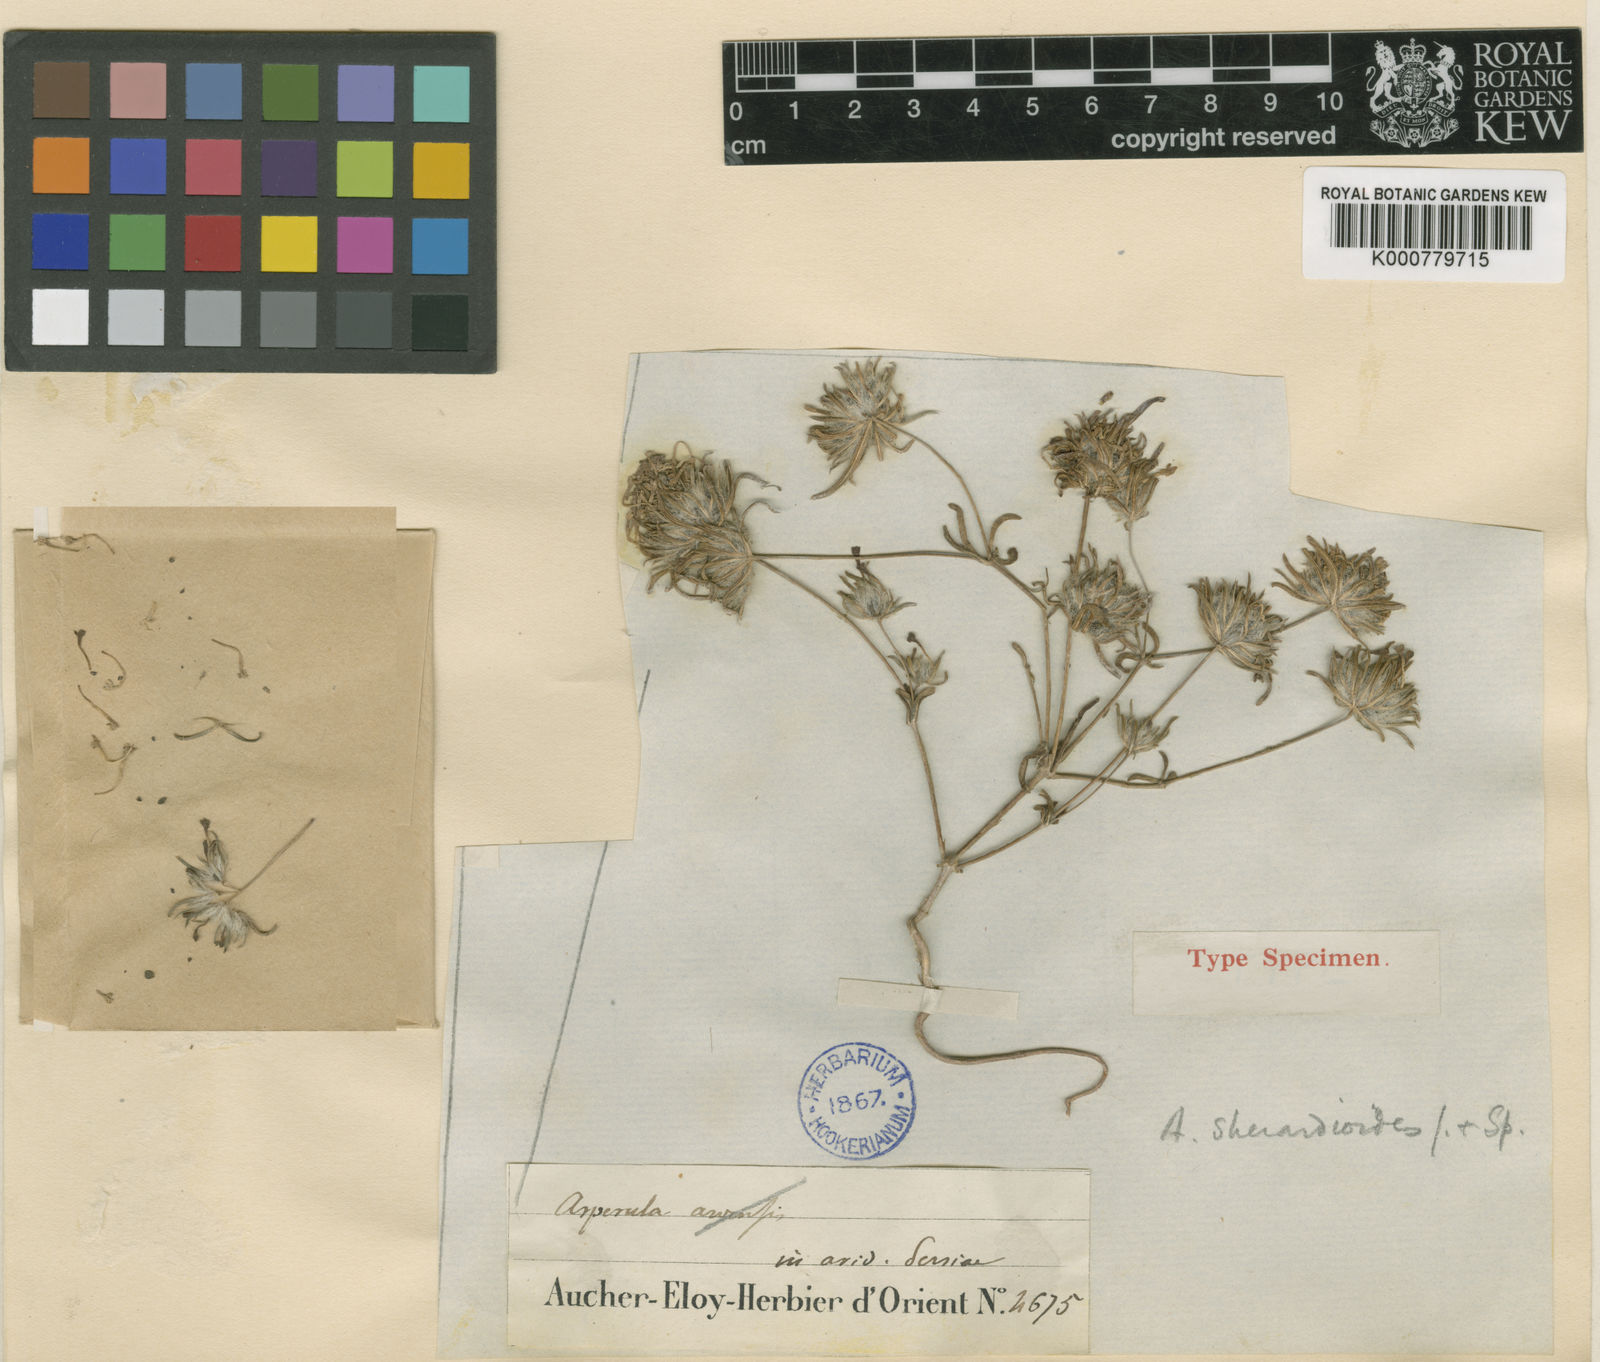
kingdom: Plantae
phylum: Tracheophyta
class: Magnoliopsida
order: Gentianales
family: Rubiaceae
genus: Asperula
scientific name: Asperula sherardioides
